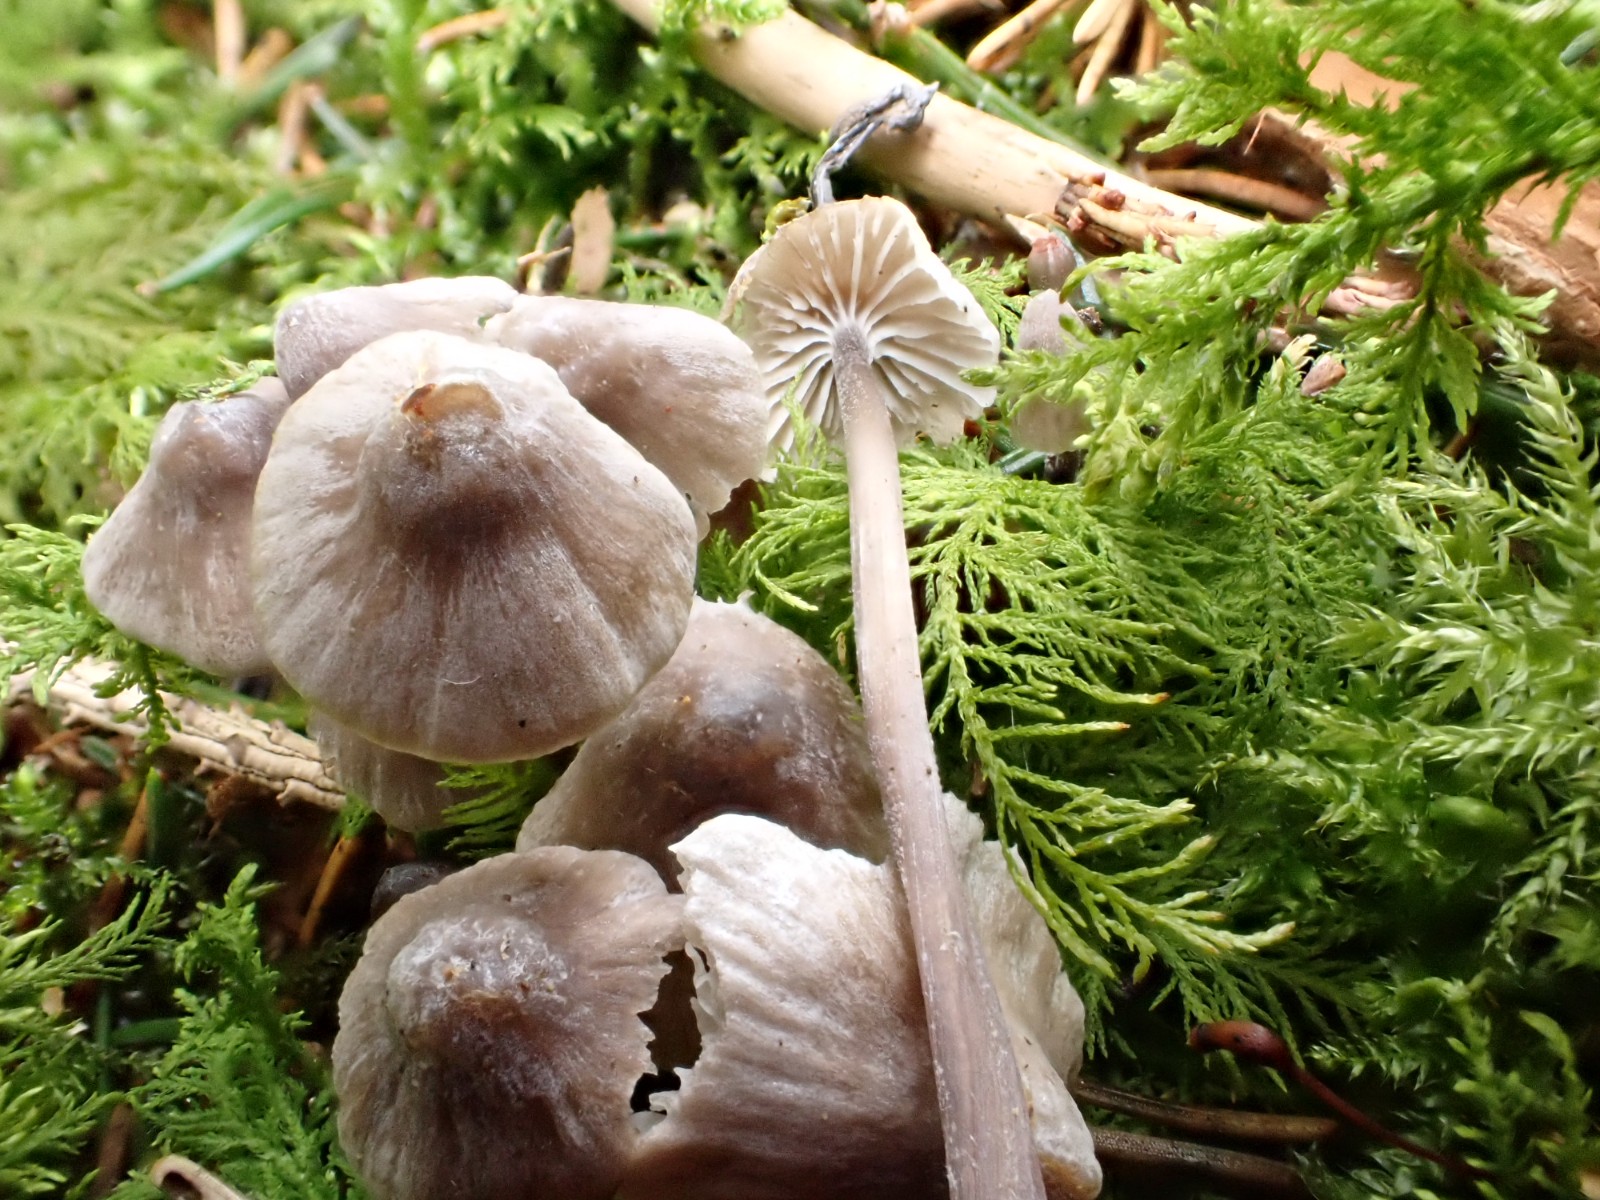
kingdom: Fungi
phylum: Basidiomycota
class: Agaricomycetes
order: Agaricales
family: Mycenaceae
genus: Mycena
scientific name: Mycena leptocephala
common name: klor-huesvamp
